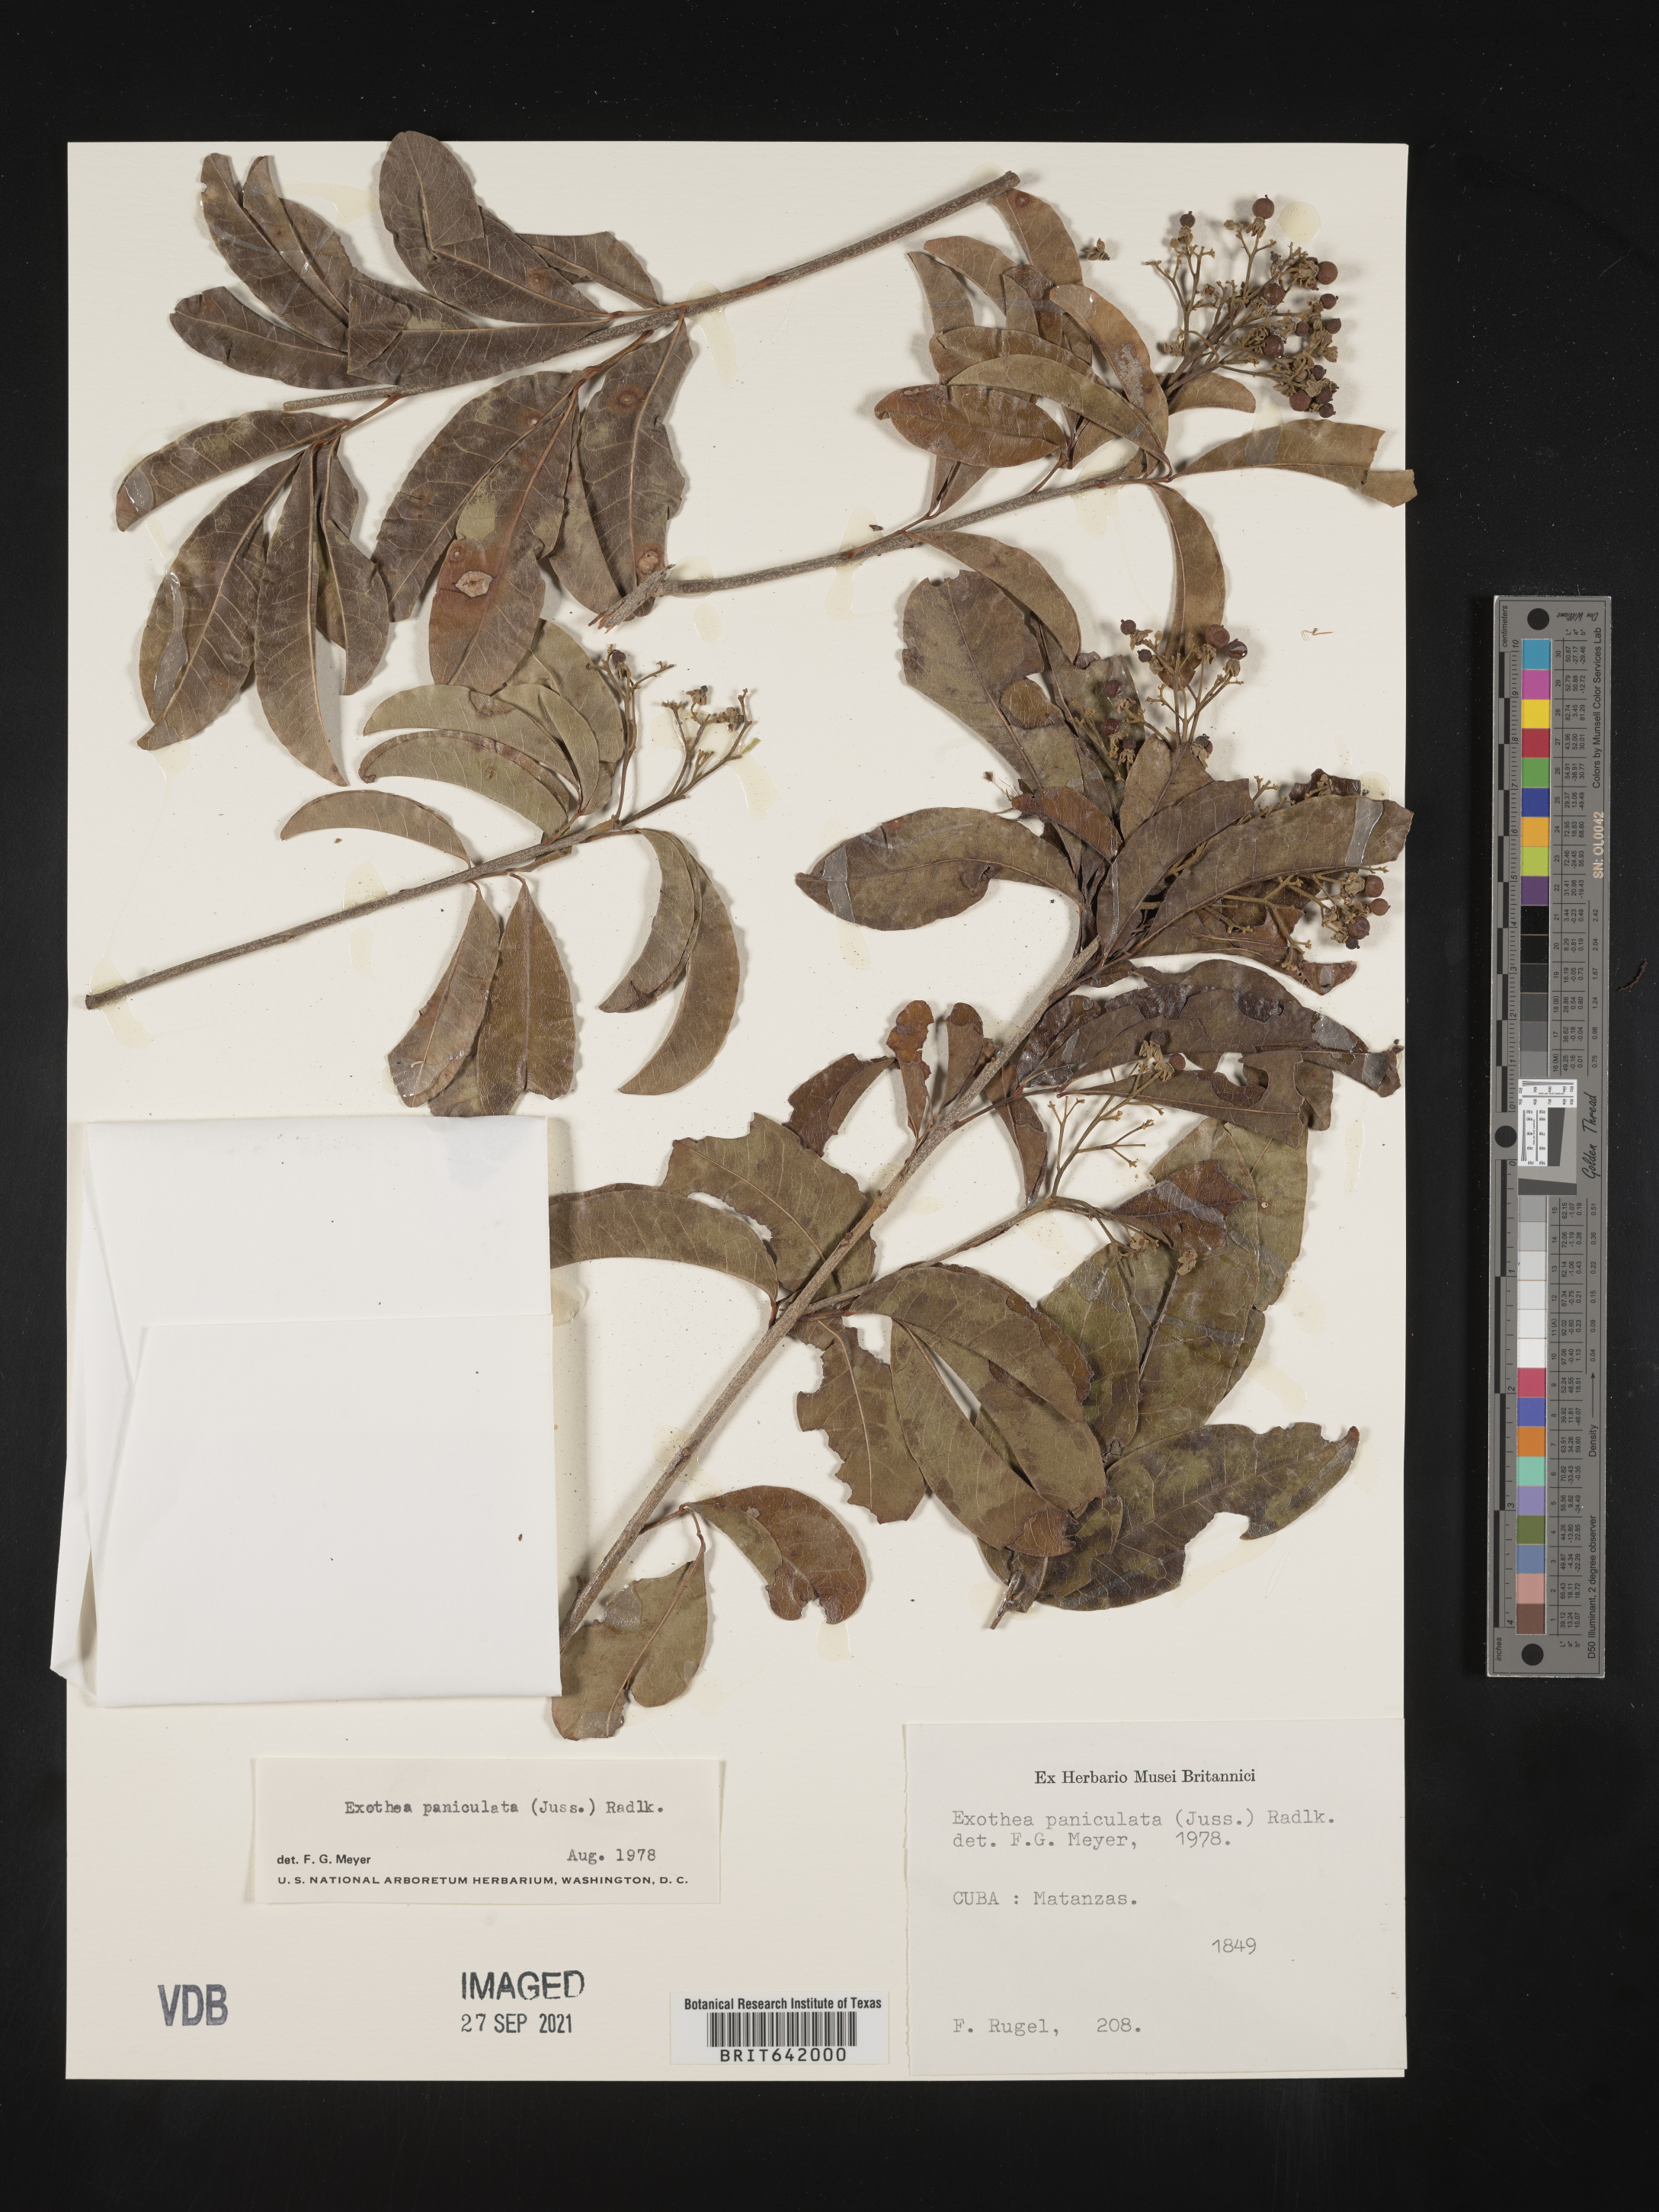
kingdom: Plantae
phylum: Tracheophyta
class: Magnoliopsida
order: Sapindales
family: Sapindaceae
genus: Exothea
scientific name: Exothea
